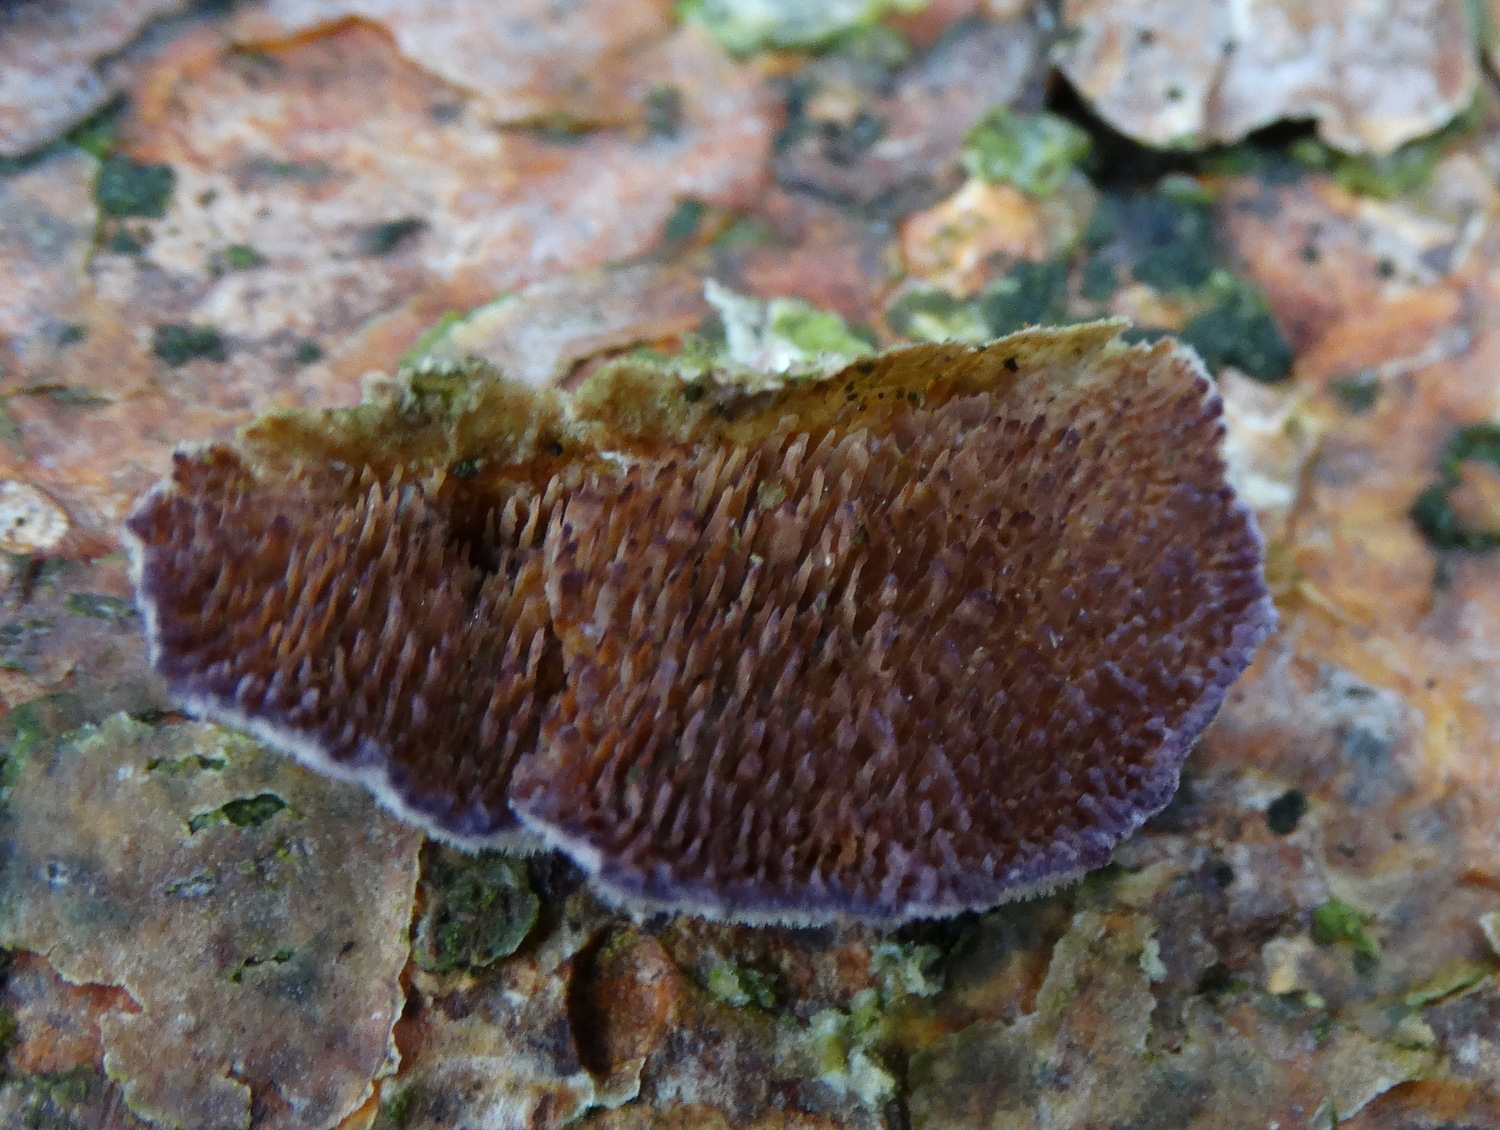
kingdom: Fungi
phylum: Basidiomycota
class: Agaricomycetes
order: Hymenochaetales
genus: Trichaptum
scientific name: Trichaptum fuscoviolaceum
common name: tandet violporesvamp
